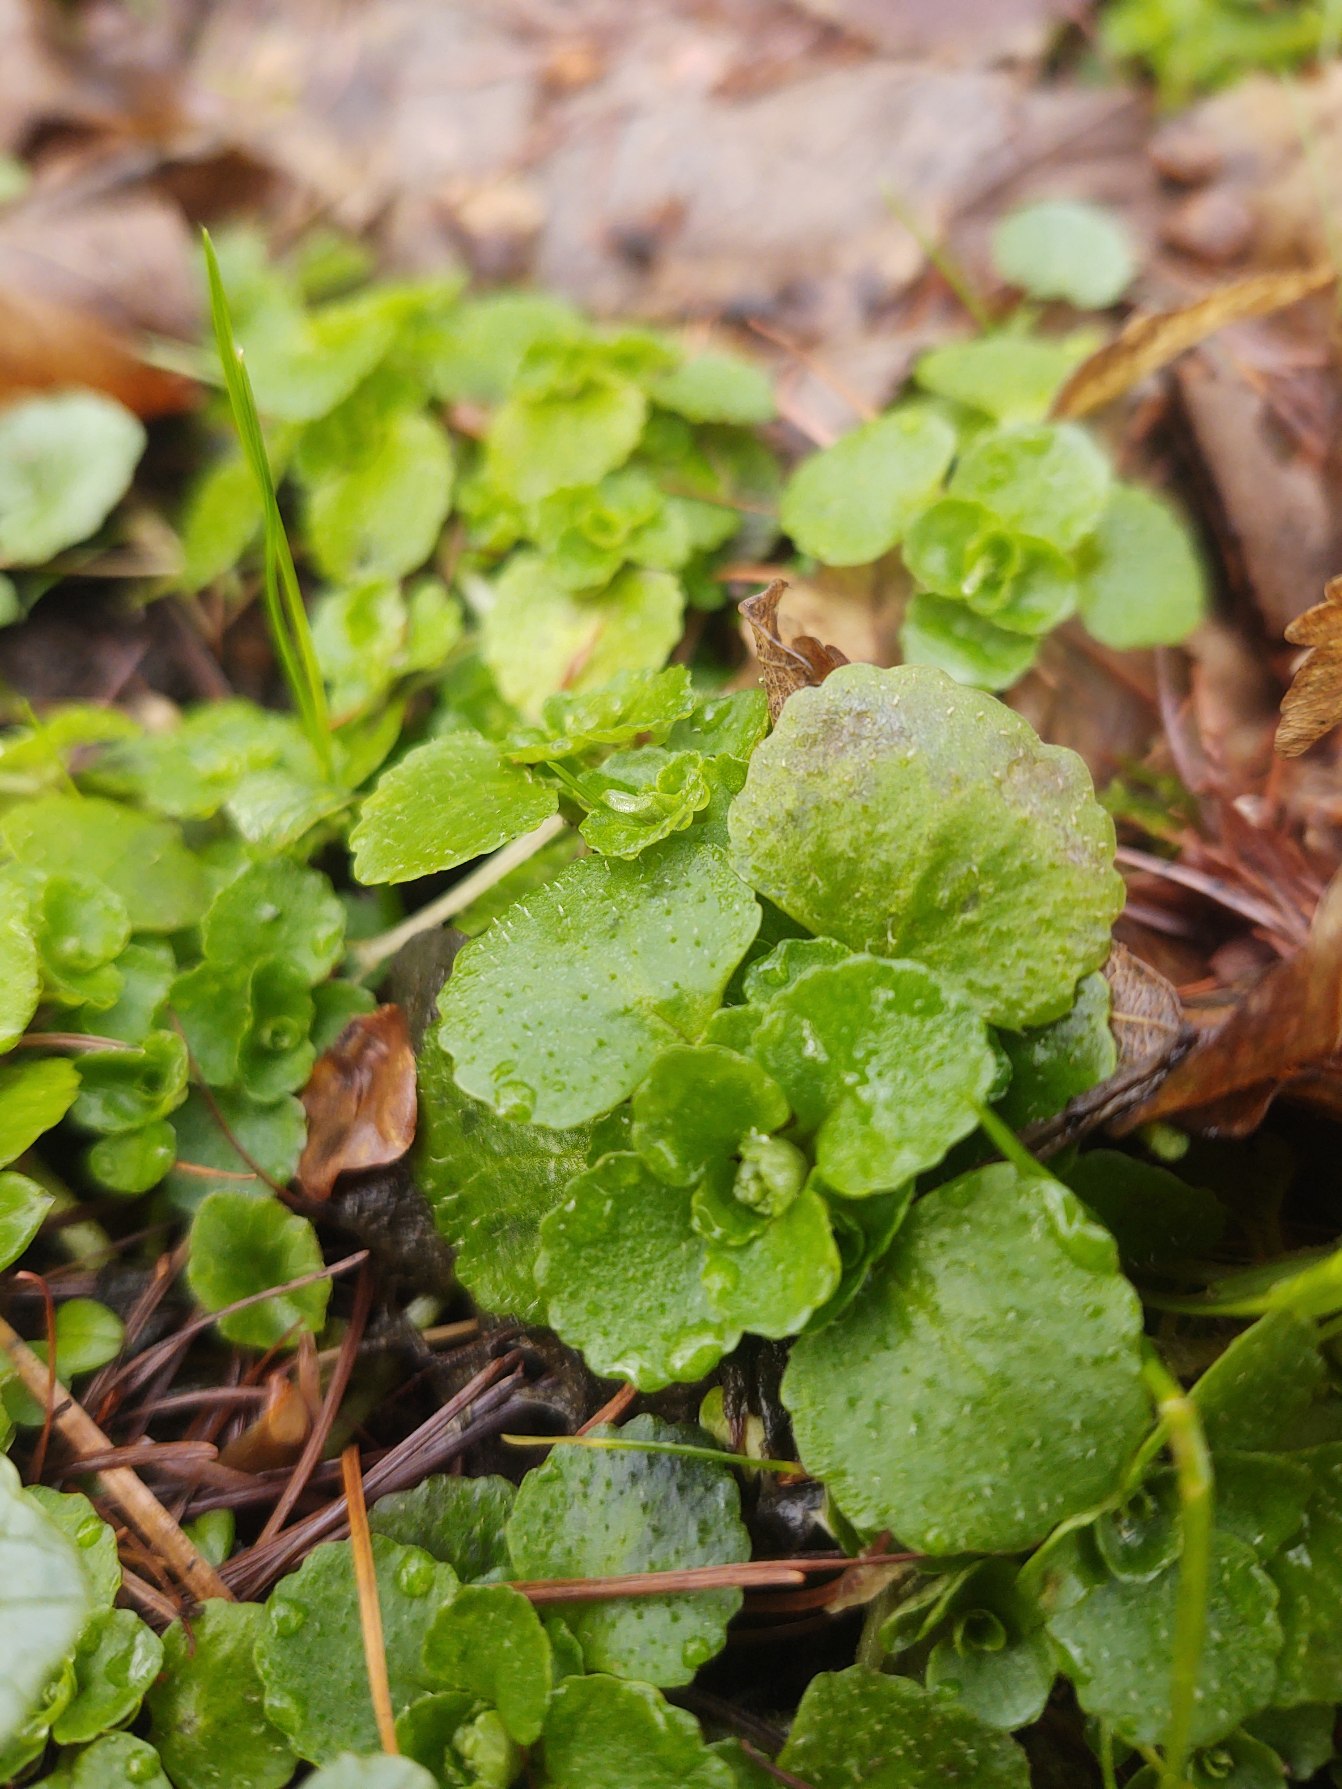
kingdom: Plantae
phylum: Tracheophyta
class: Magnoliopsida
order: Saxifragales
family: Saxifragaceae
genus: Chrysosplenium
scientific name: Chrysosplenium oppositifolium
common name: Småbladet milturt
